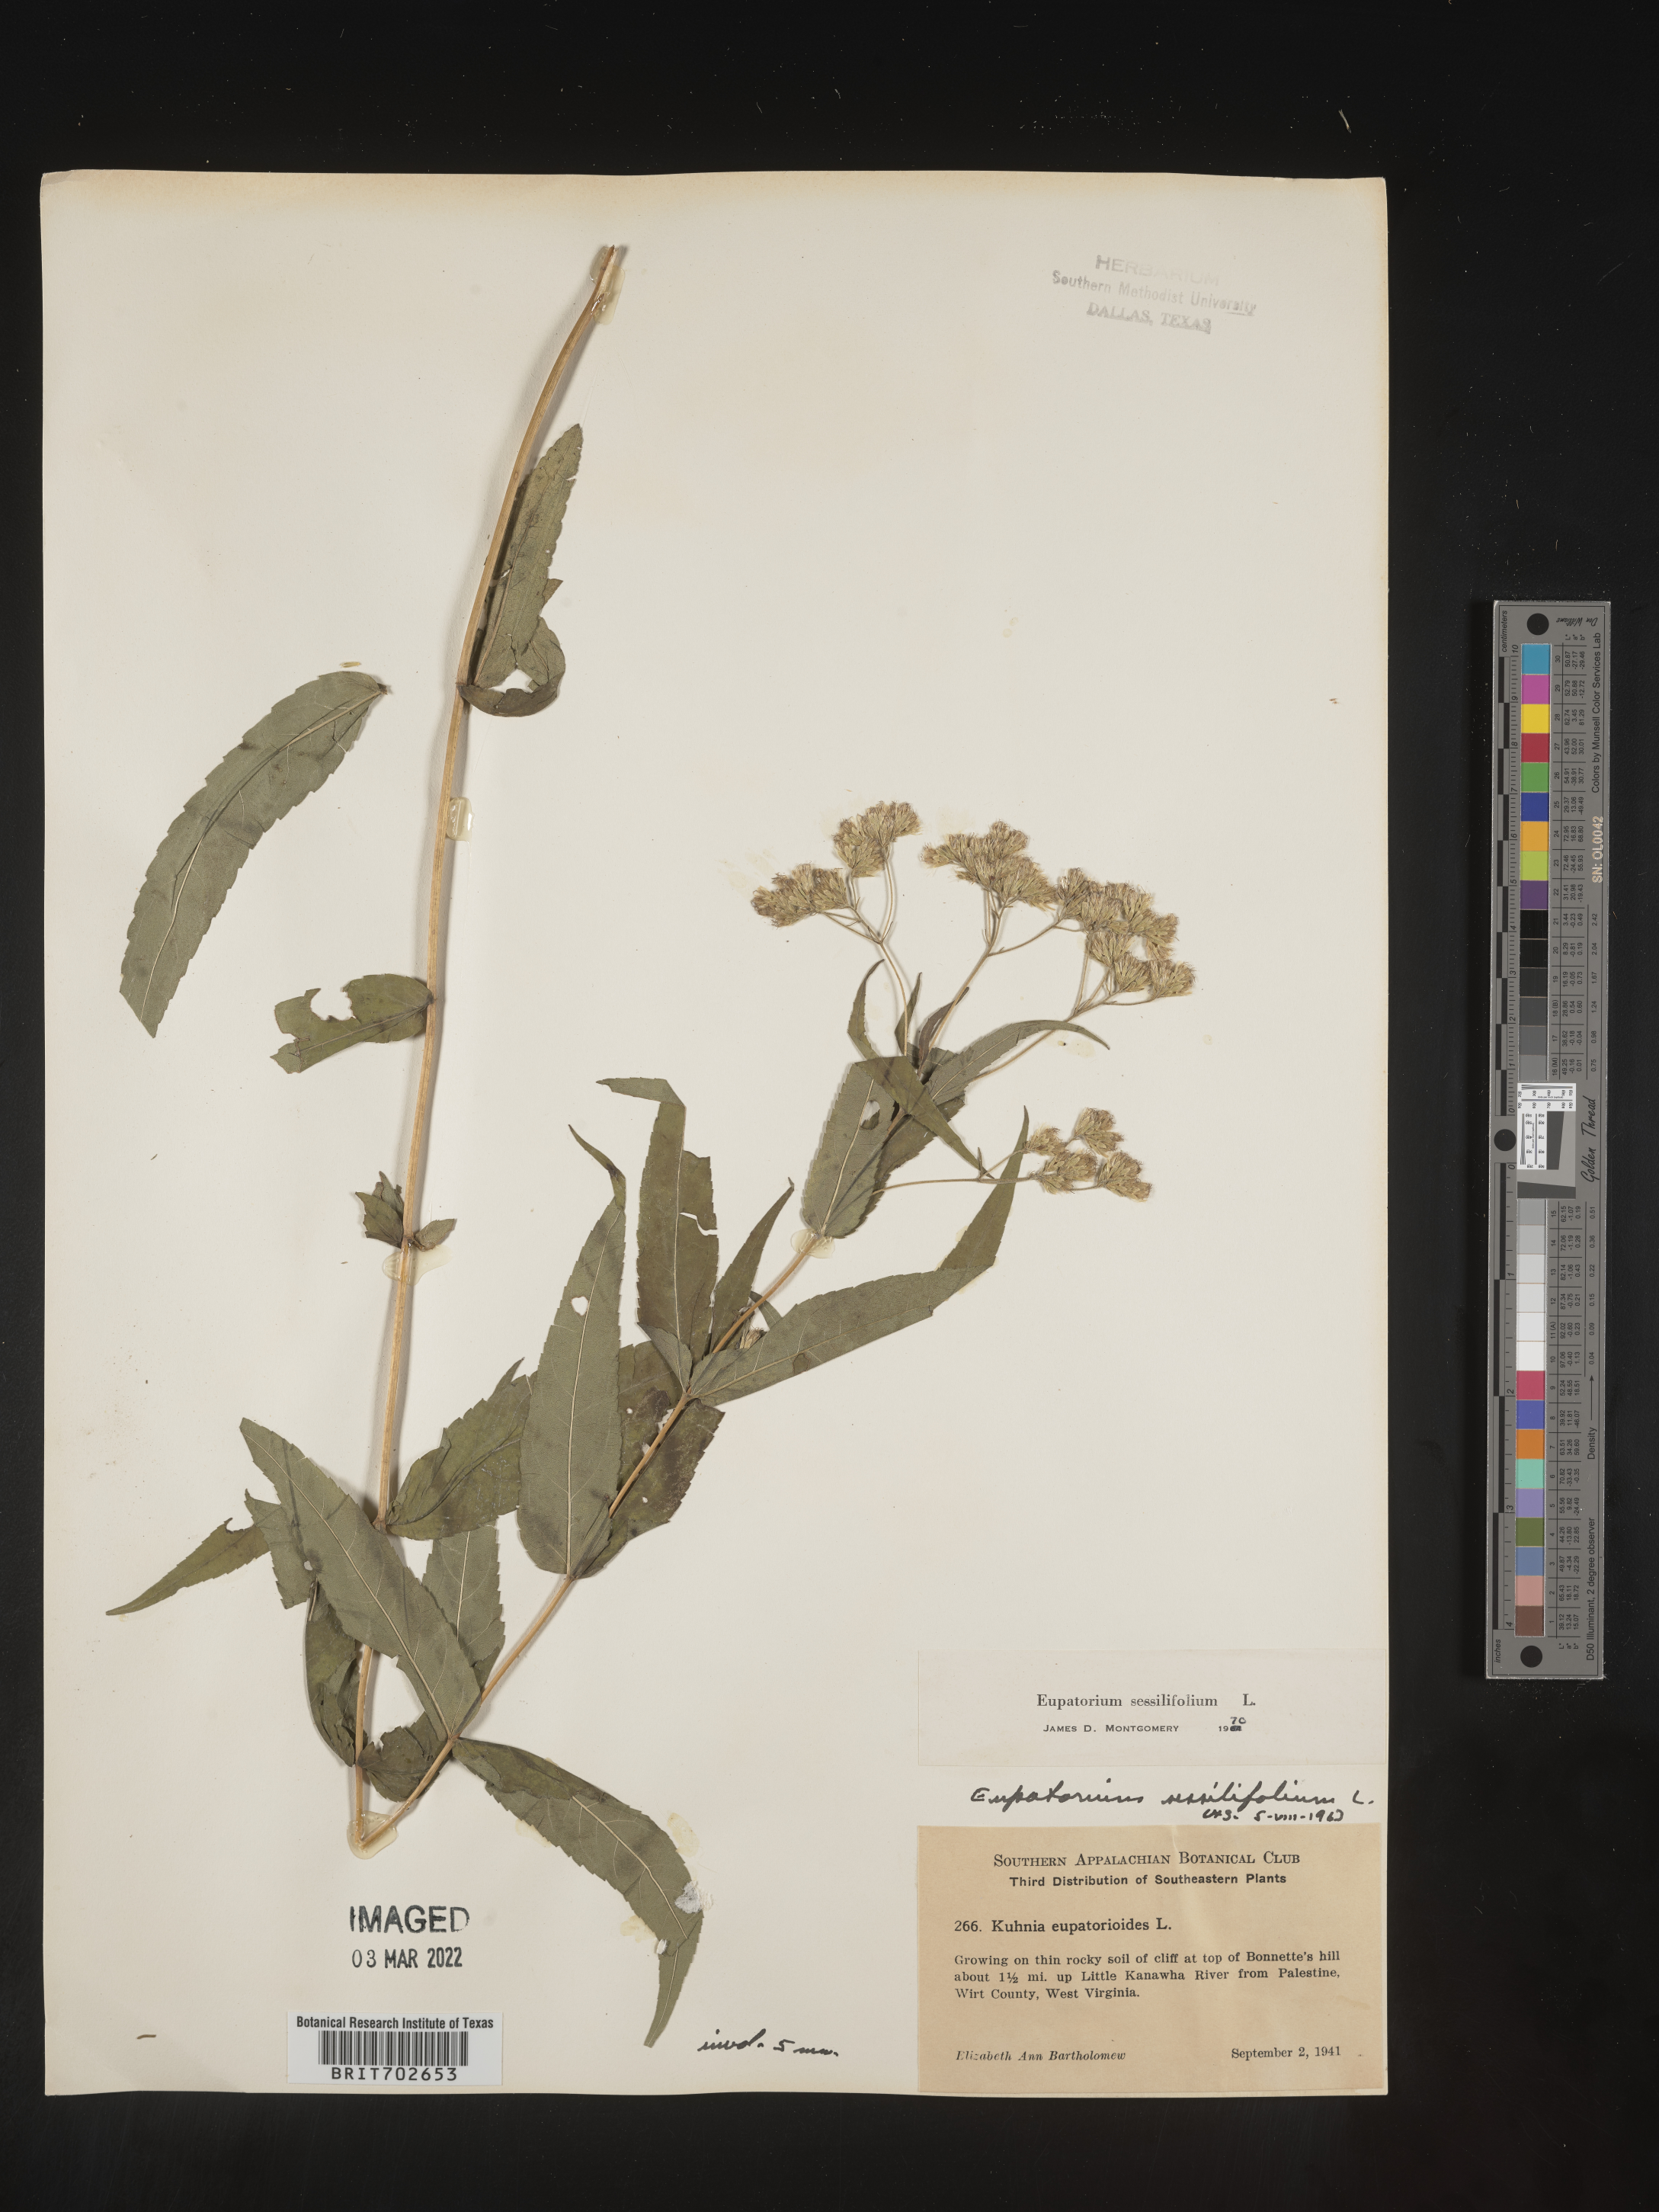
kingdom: Plantae
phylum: Tracheophyta
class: Magnoliopsida
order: Asterales
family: Asteraceae
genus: Eupatorium
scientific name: Eupatorium sessilifolium
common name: Upland boneset
